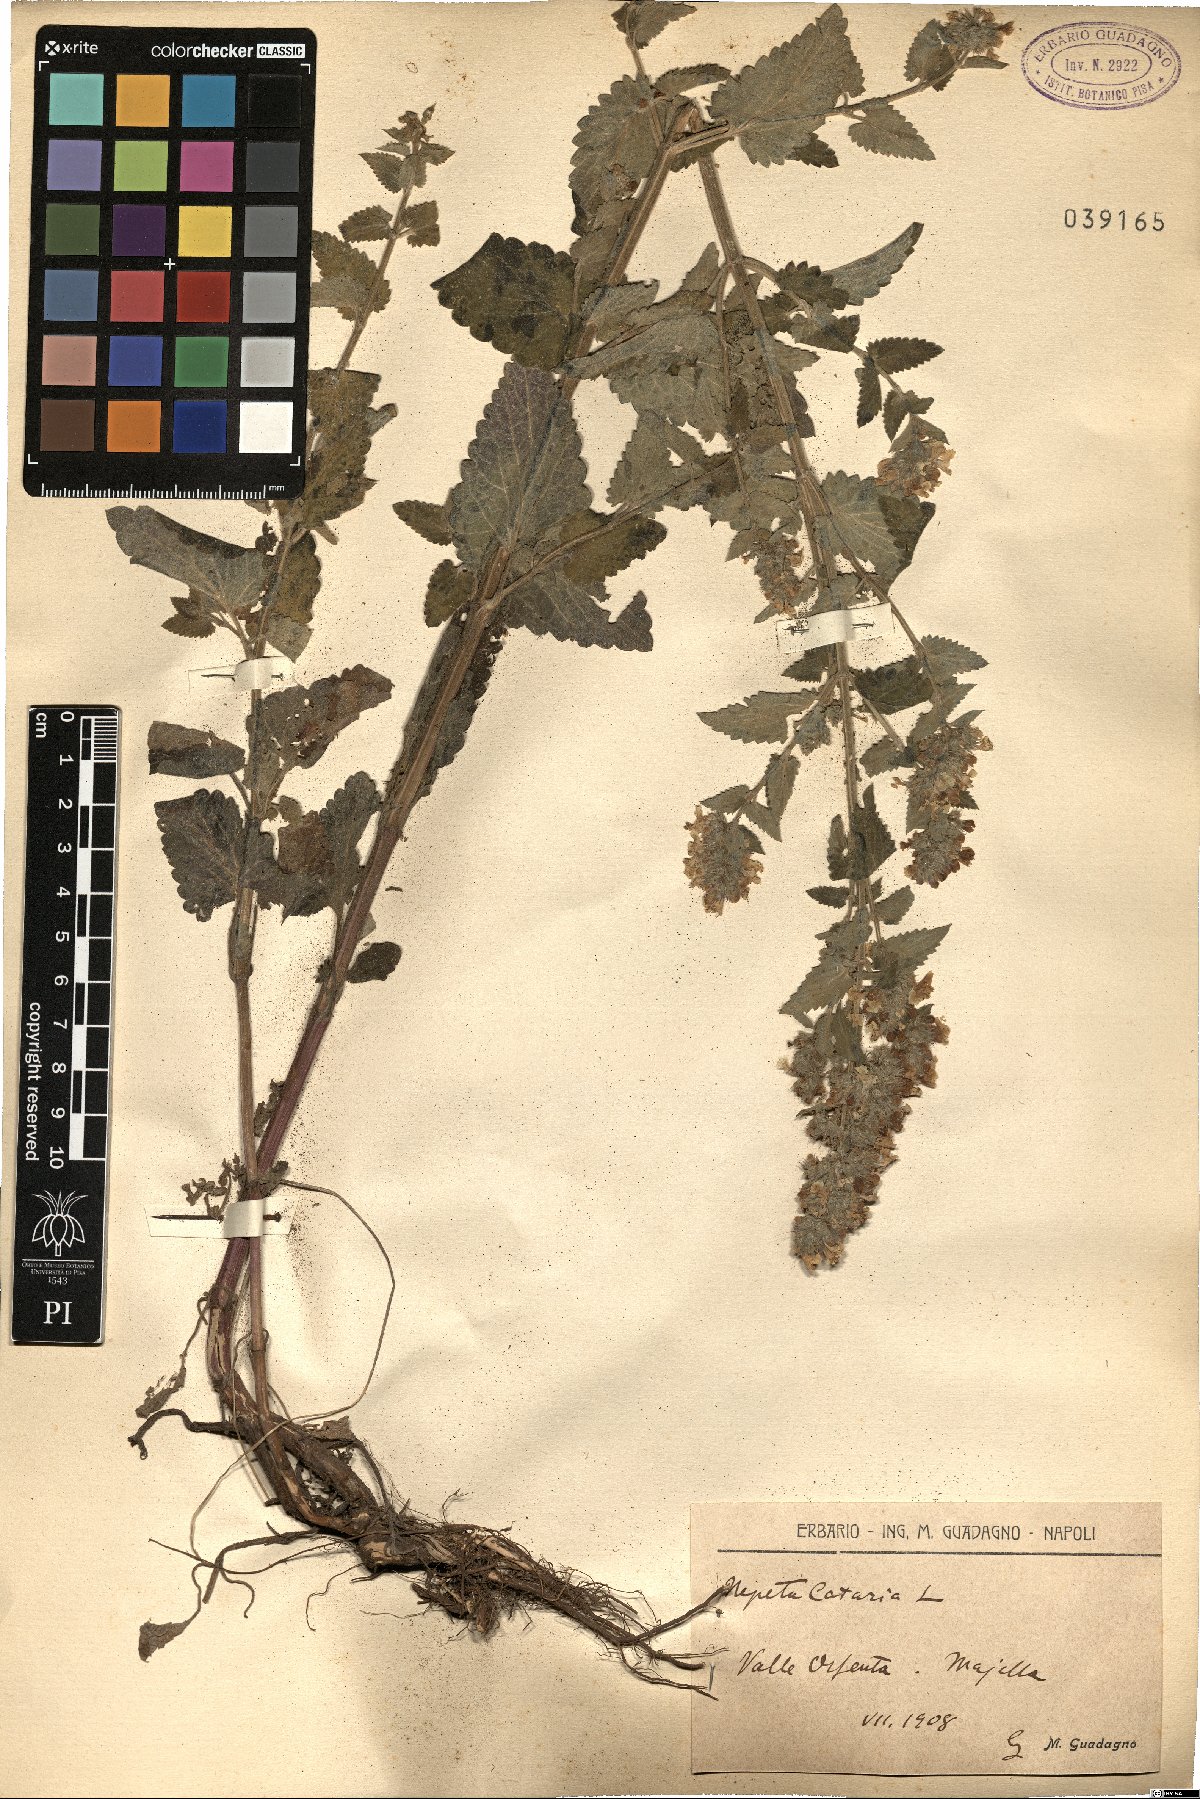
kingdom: Plantae
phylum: Tracheophyta
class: Magnoliopsida
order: Lamiales
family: Lamiaceae
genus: Nepeta
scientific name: Nepeta cataria
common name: Catnip
